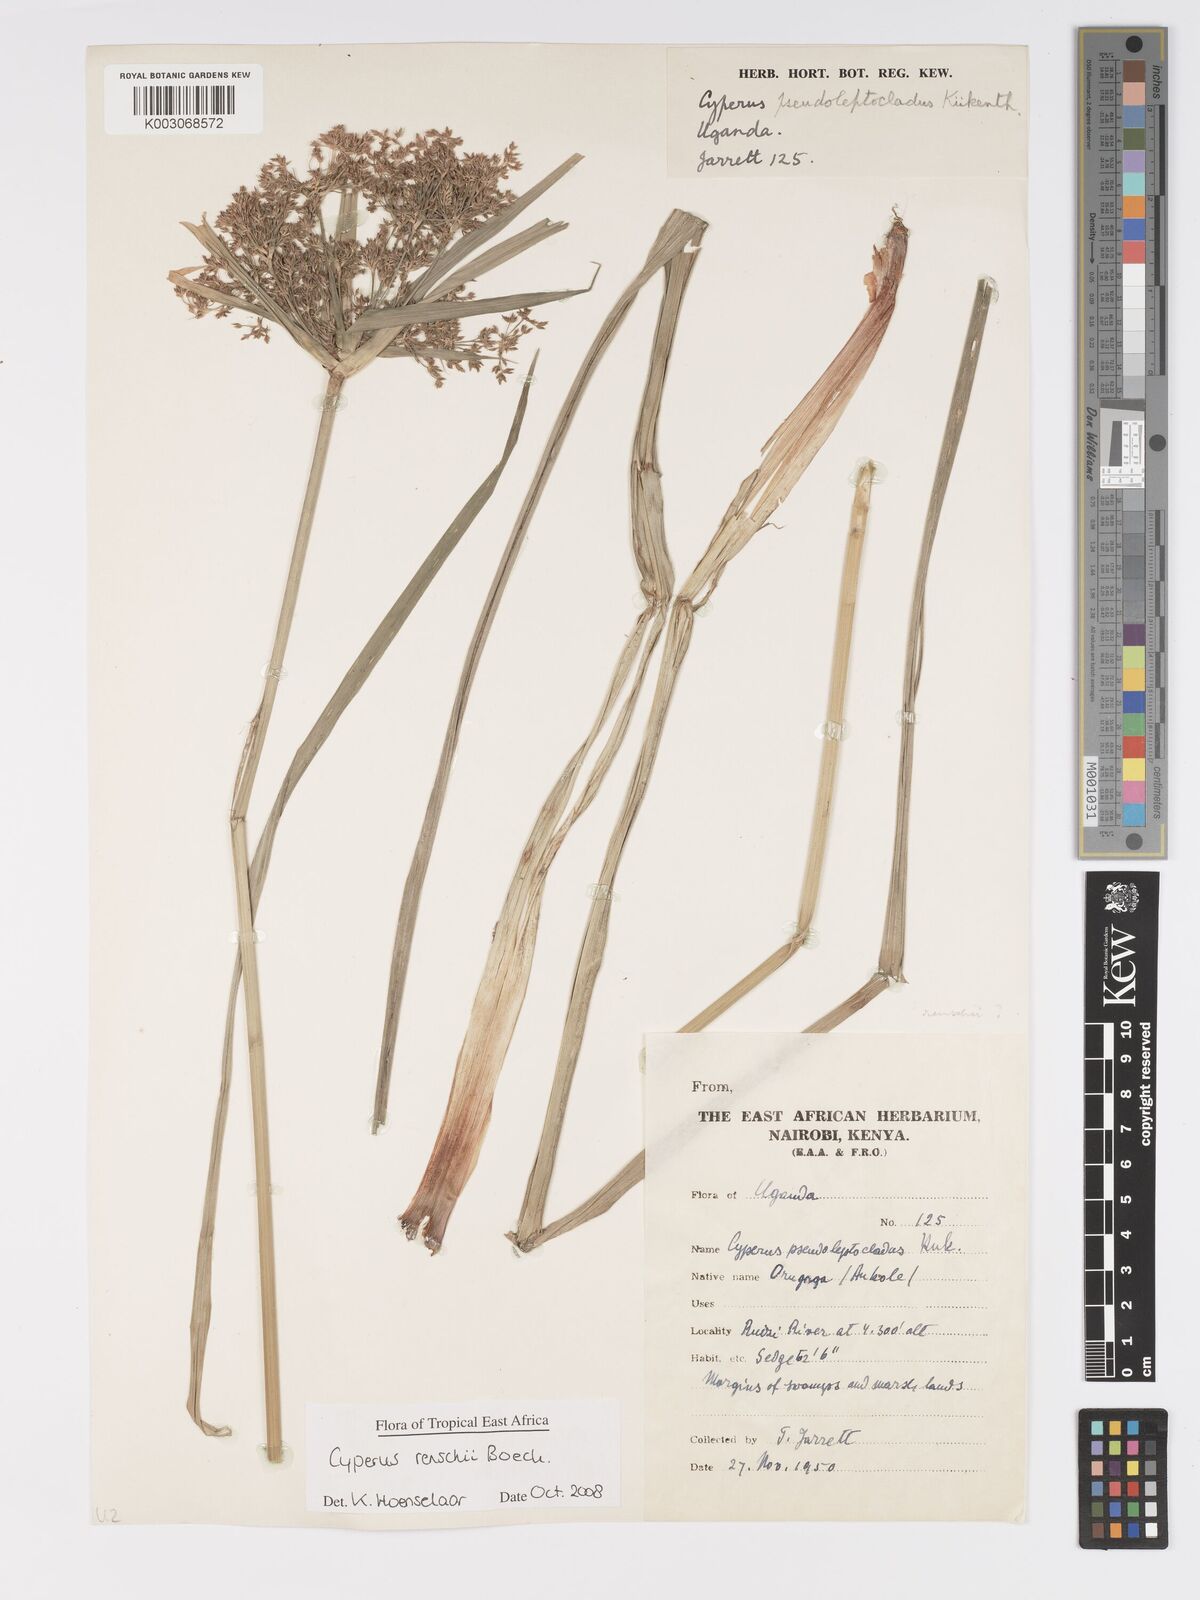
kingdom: Plantae
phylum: Tracheophyta
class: Liliopsida
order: Poales
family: Cyperaceae
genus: Cyperus
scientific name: Cyperus renschii
